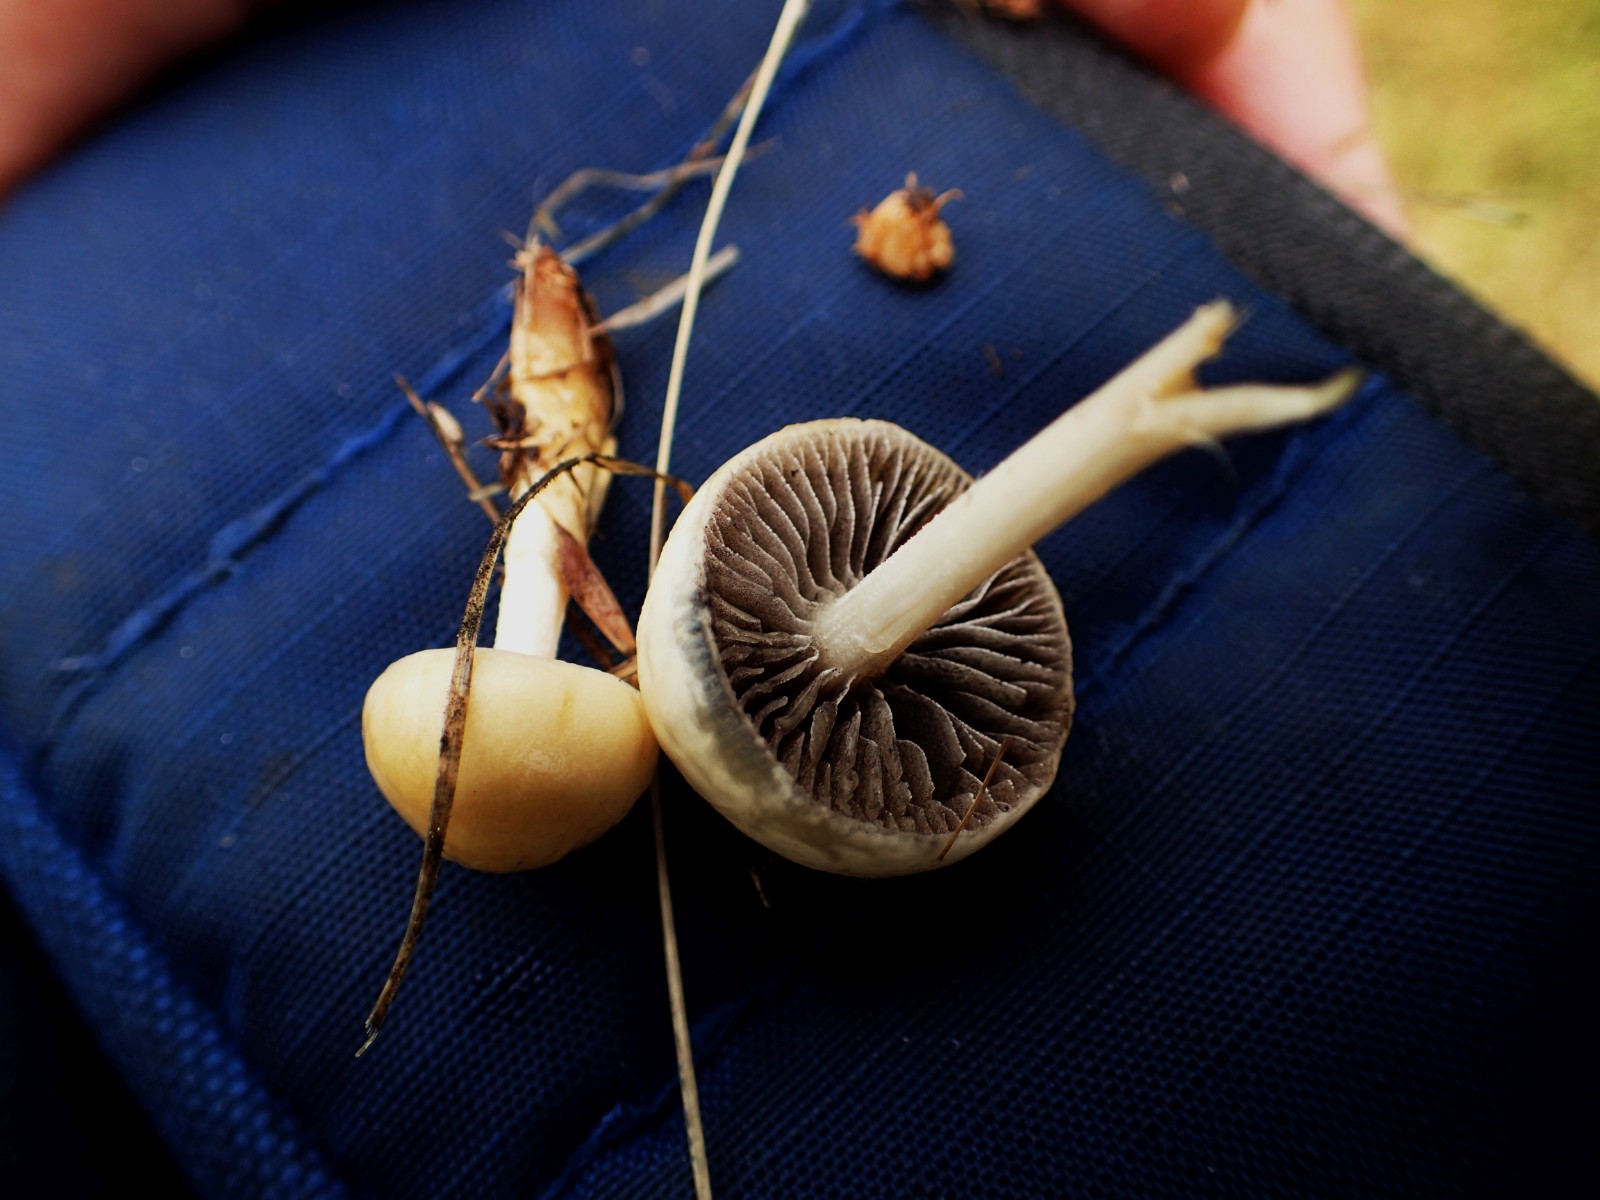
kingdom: Fungi
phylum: Basidiomycota
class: Agaricomycetes
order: Agaricales
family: Strophariaceae
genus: Agrocybe
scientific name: Agrocybe pediades
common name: almindelig agerhat
